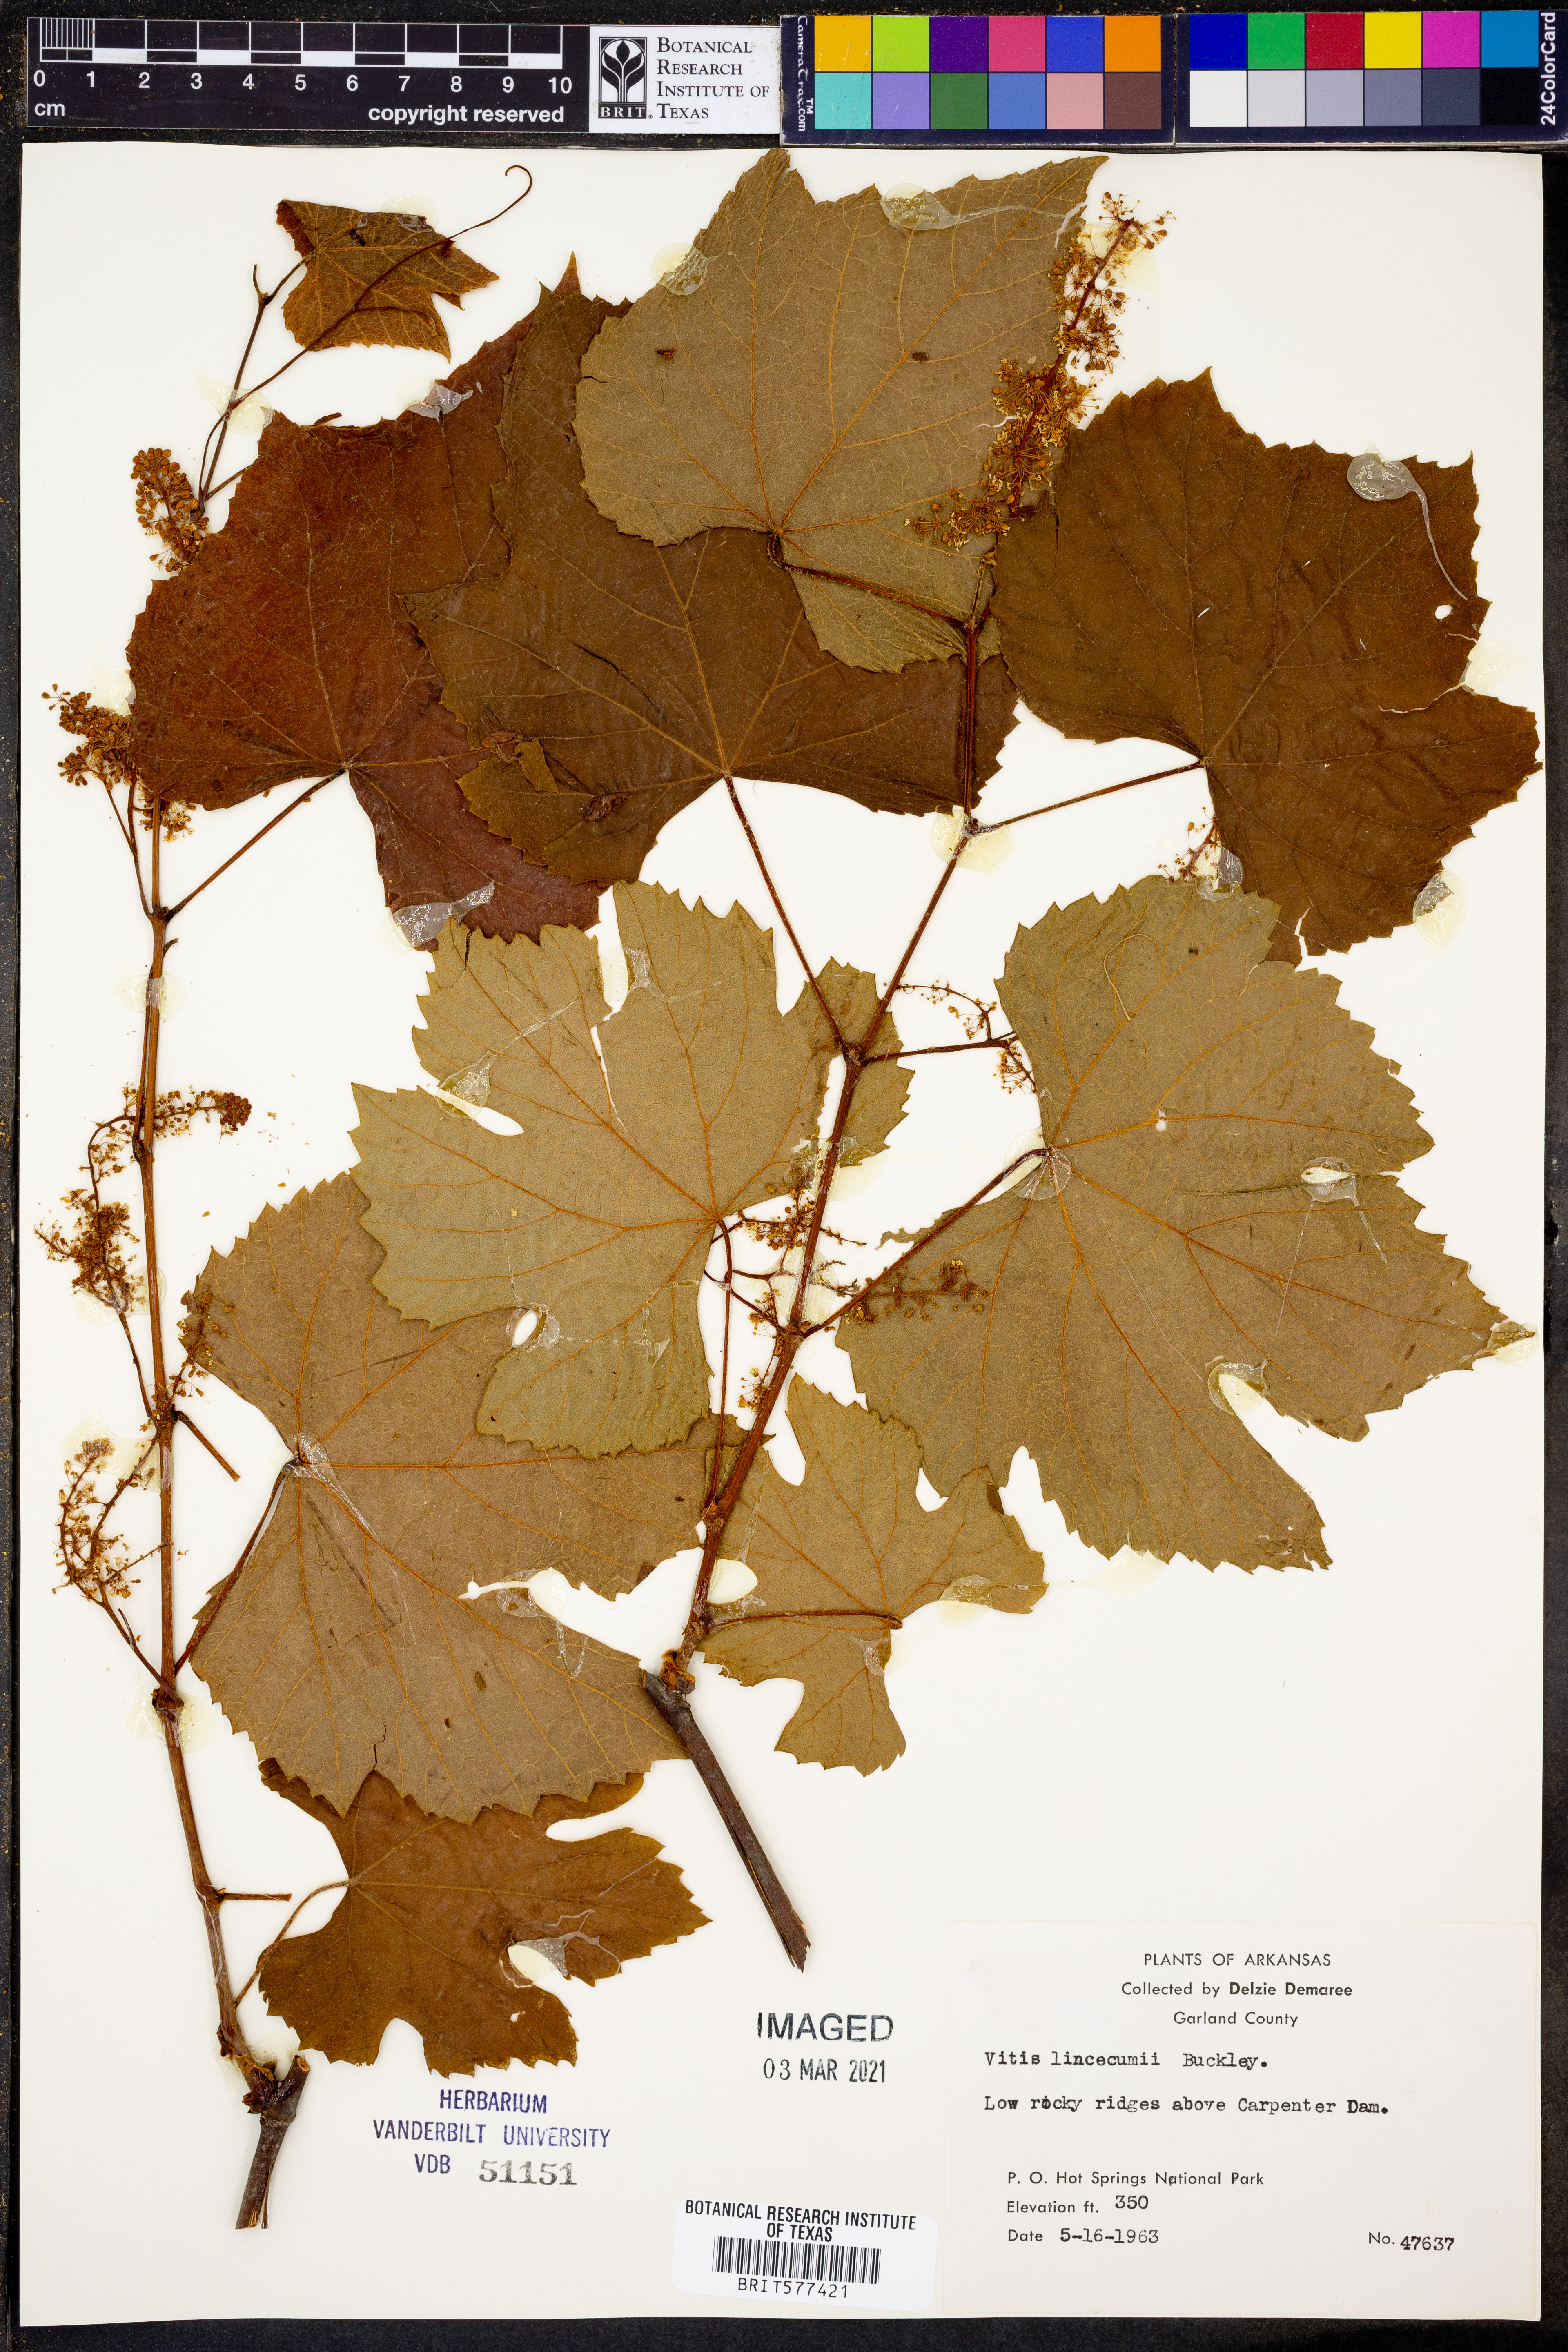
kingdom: Plantae
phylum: Tracheophyta
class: Magnoliopsida
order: Vitales
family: Vitaceae
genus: Vitis
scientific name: Vitis aestivalis
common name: Pigeon grape
